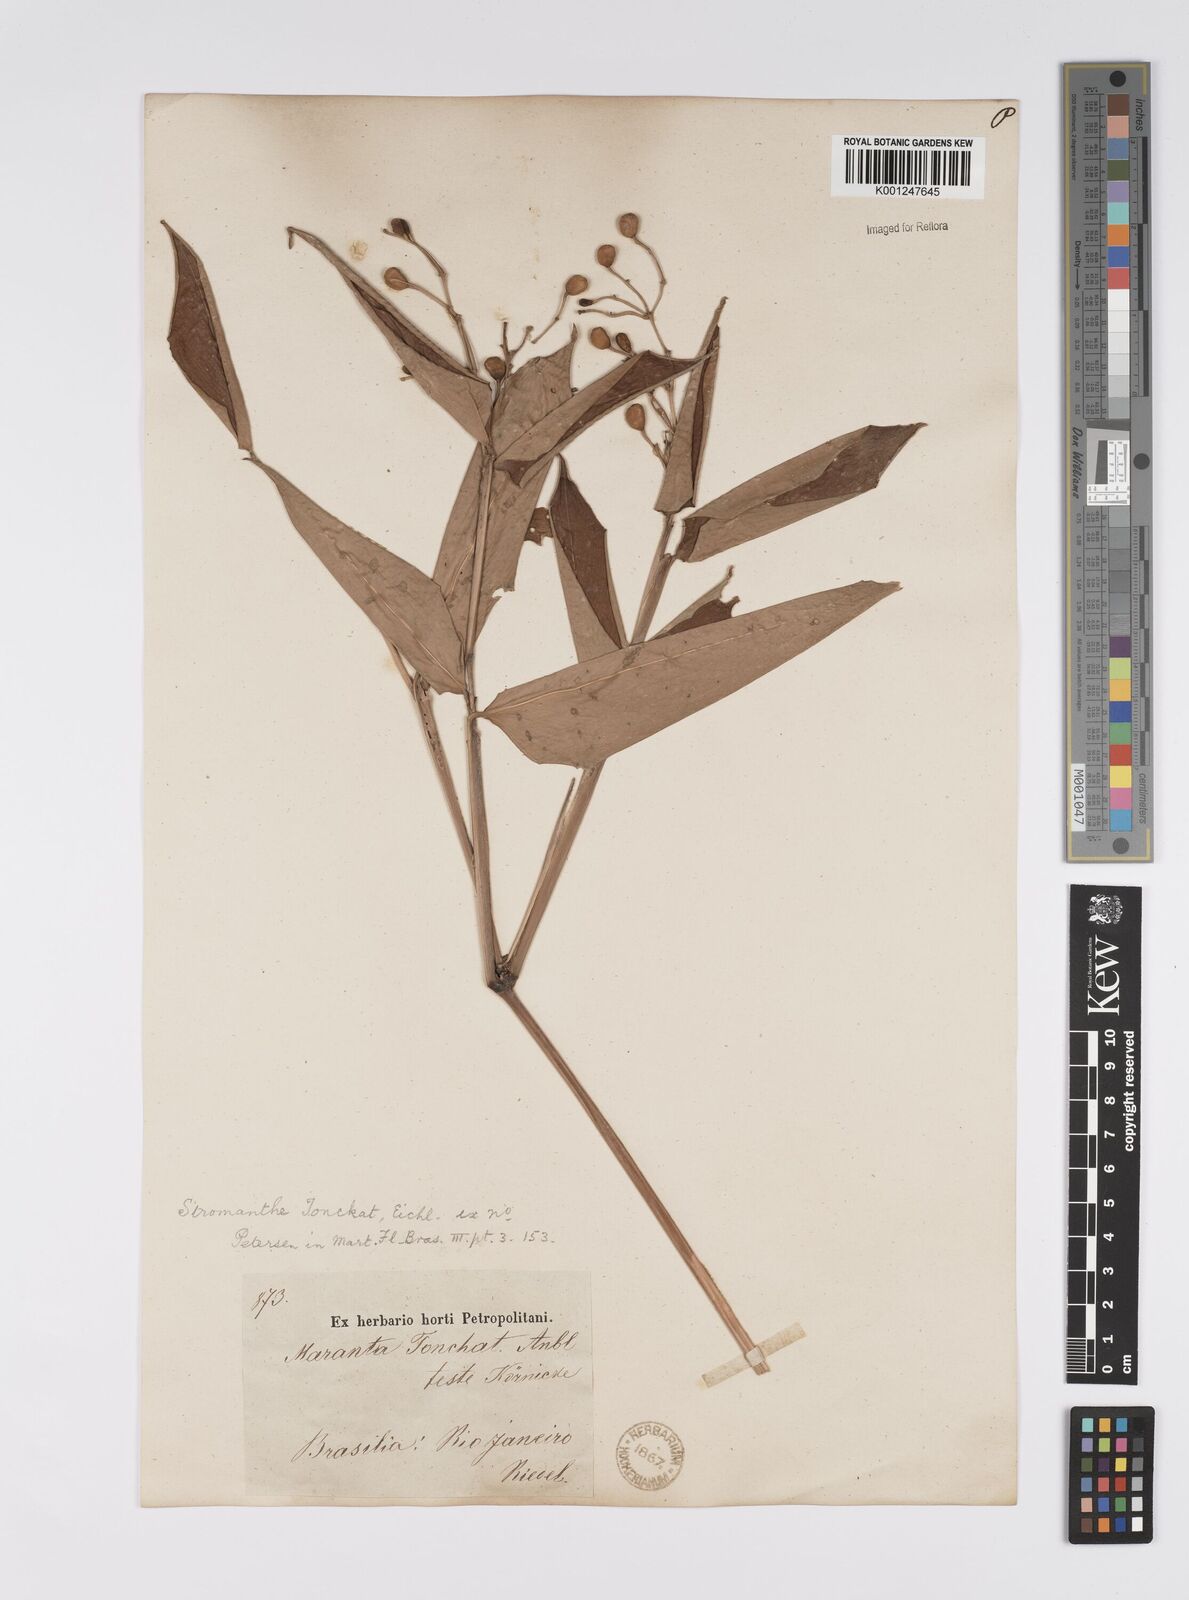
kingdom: Plantae
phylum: Tracheophyta
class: Liliopsida
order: Zingiberales
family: Marantaceae
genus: Stromanthe
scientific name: Stromanthe tonckat
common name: Stromanthe
